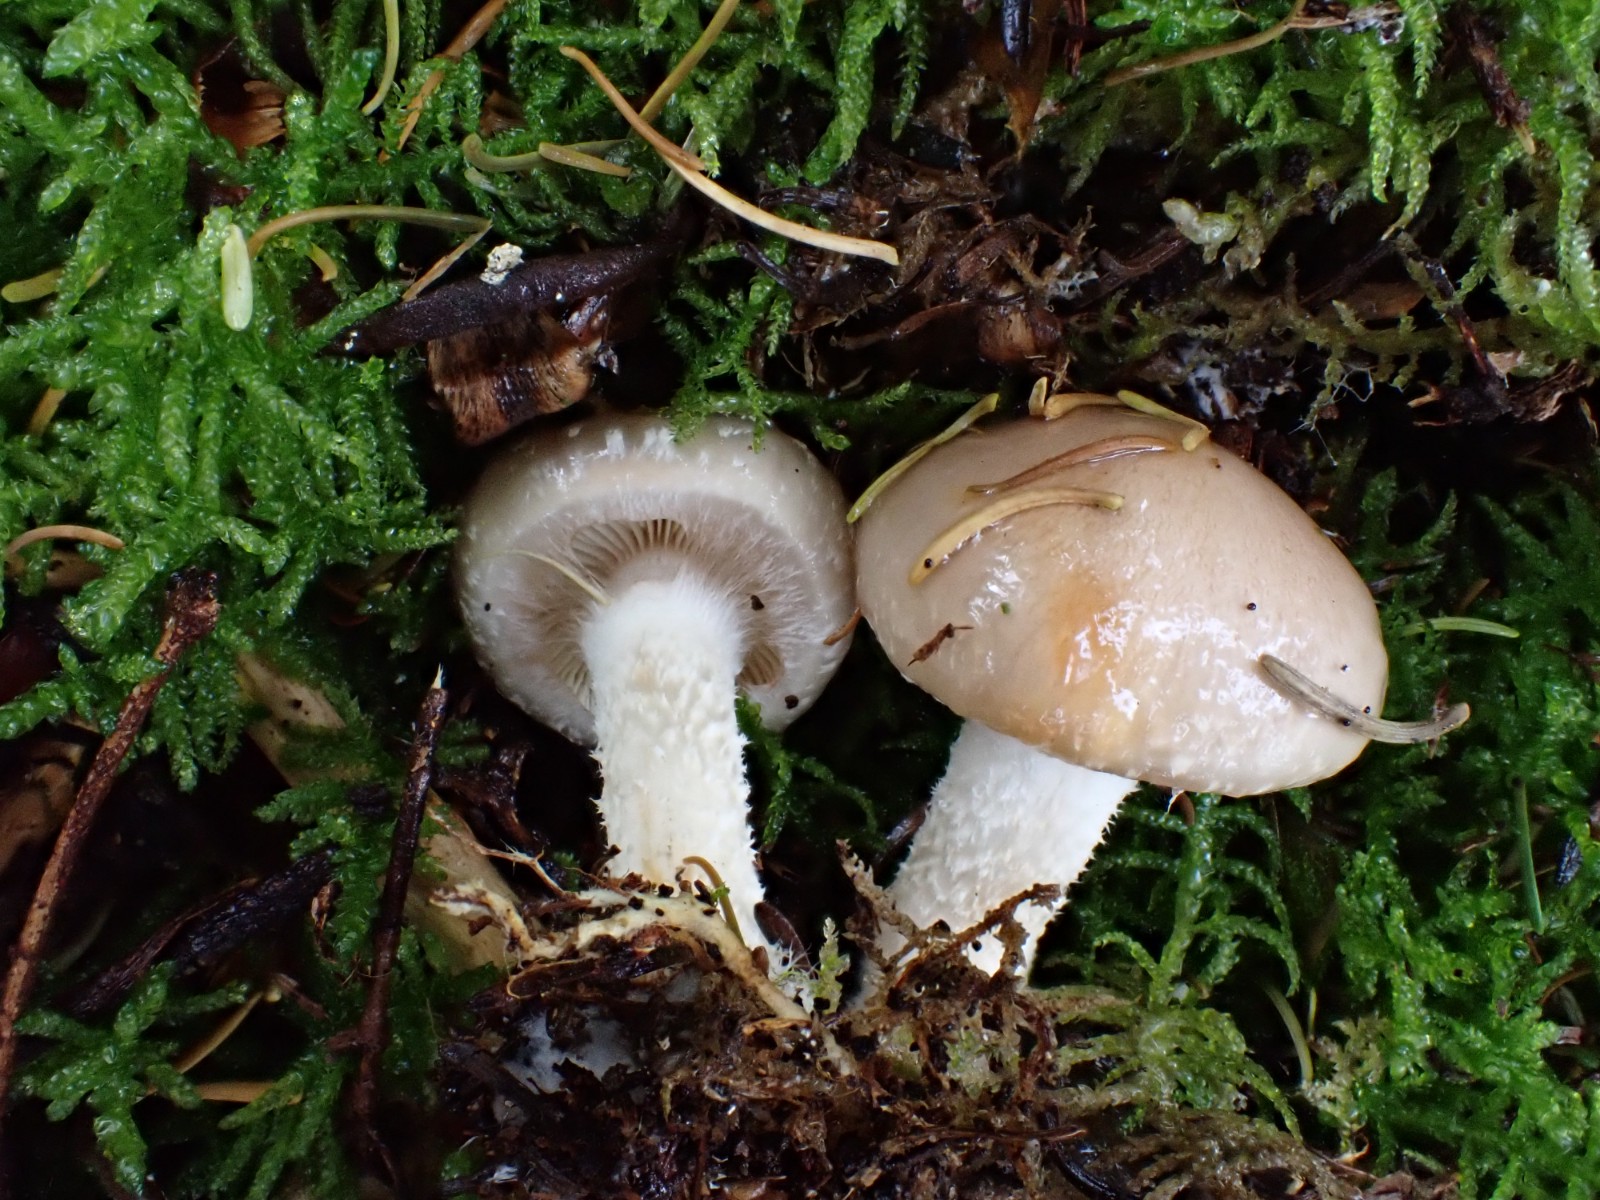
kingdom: Fungi
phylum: Basidiomycota
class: Agaricomycetes
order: Agaricales
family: Strophariaceae
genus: Pholiota
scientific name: Pholiota lenta
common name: løv-skælhat
